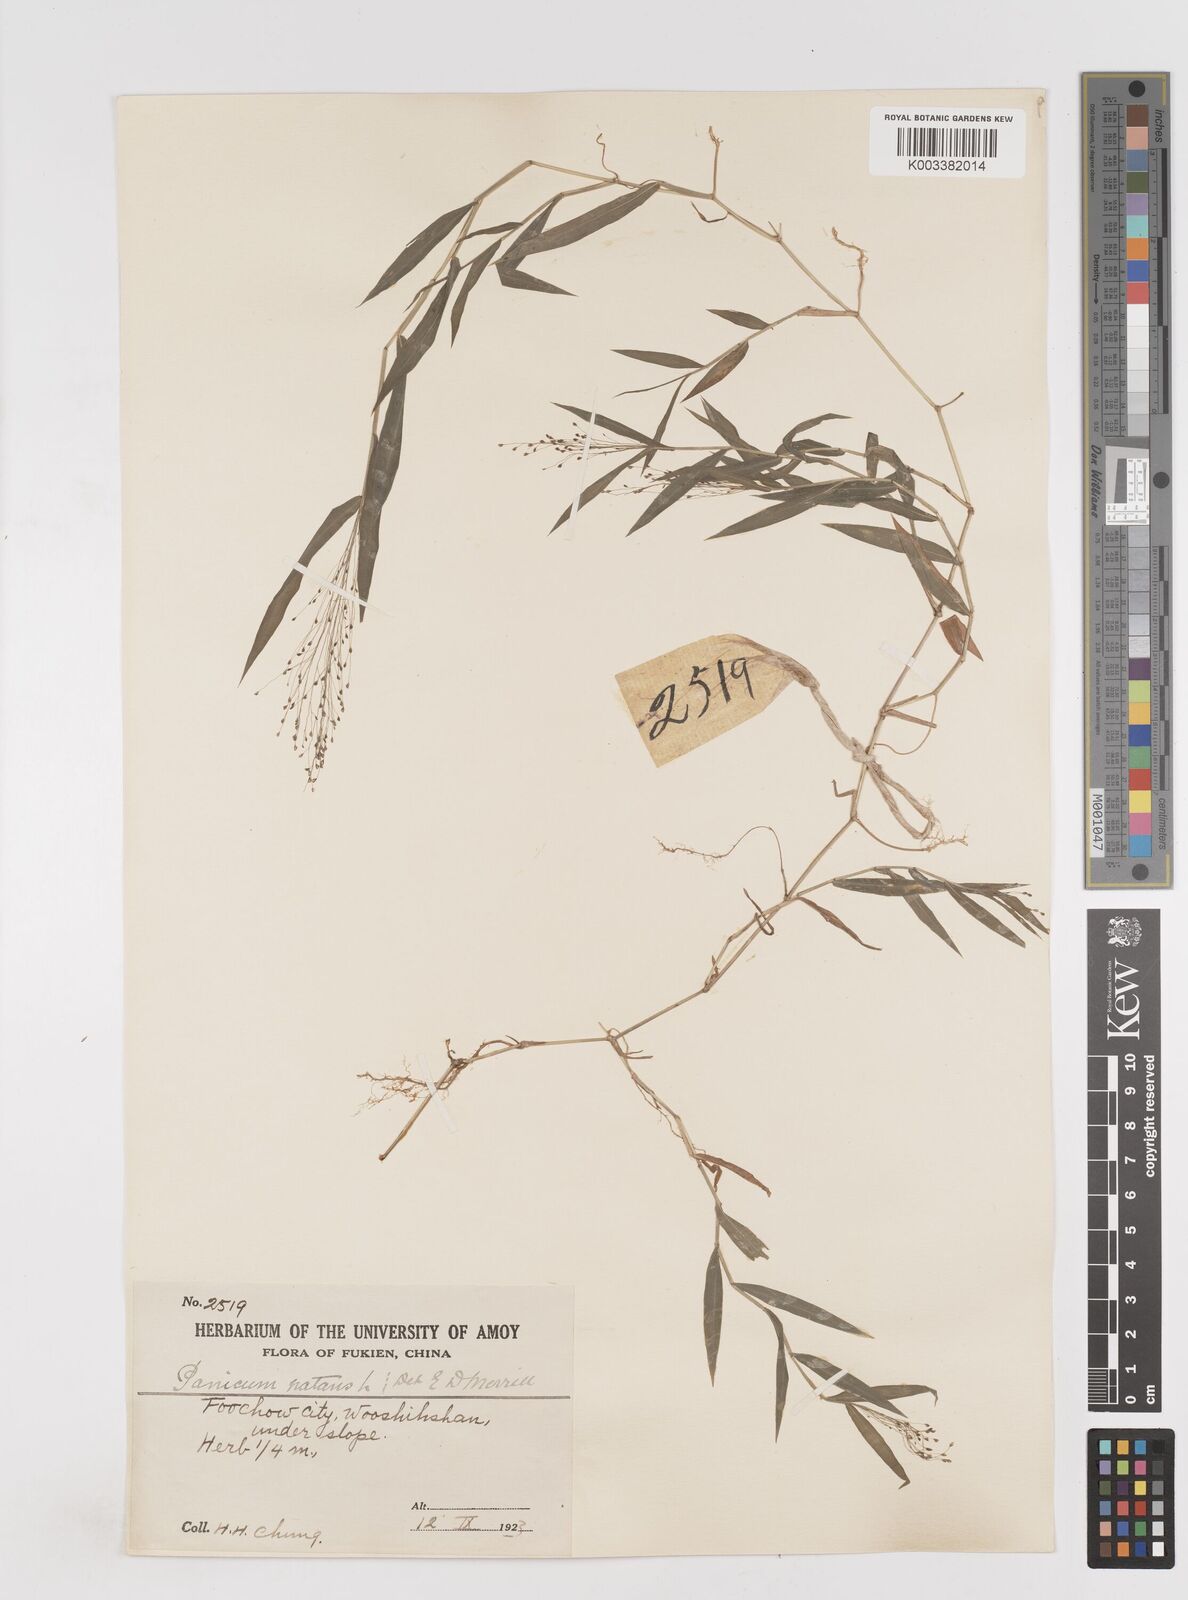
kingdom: Plantae
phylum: Tracheophyta
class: Liliopsida
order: Poales
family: Poaceae
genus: Cyrtococcum
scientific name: Cyrtococcum patens
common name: Broad-leaved bowgrass
